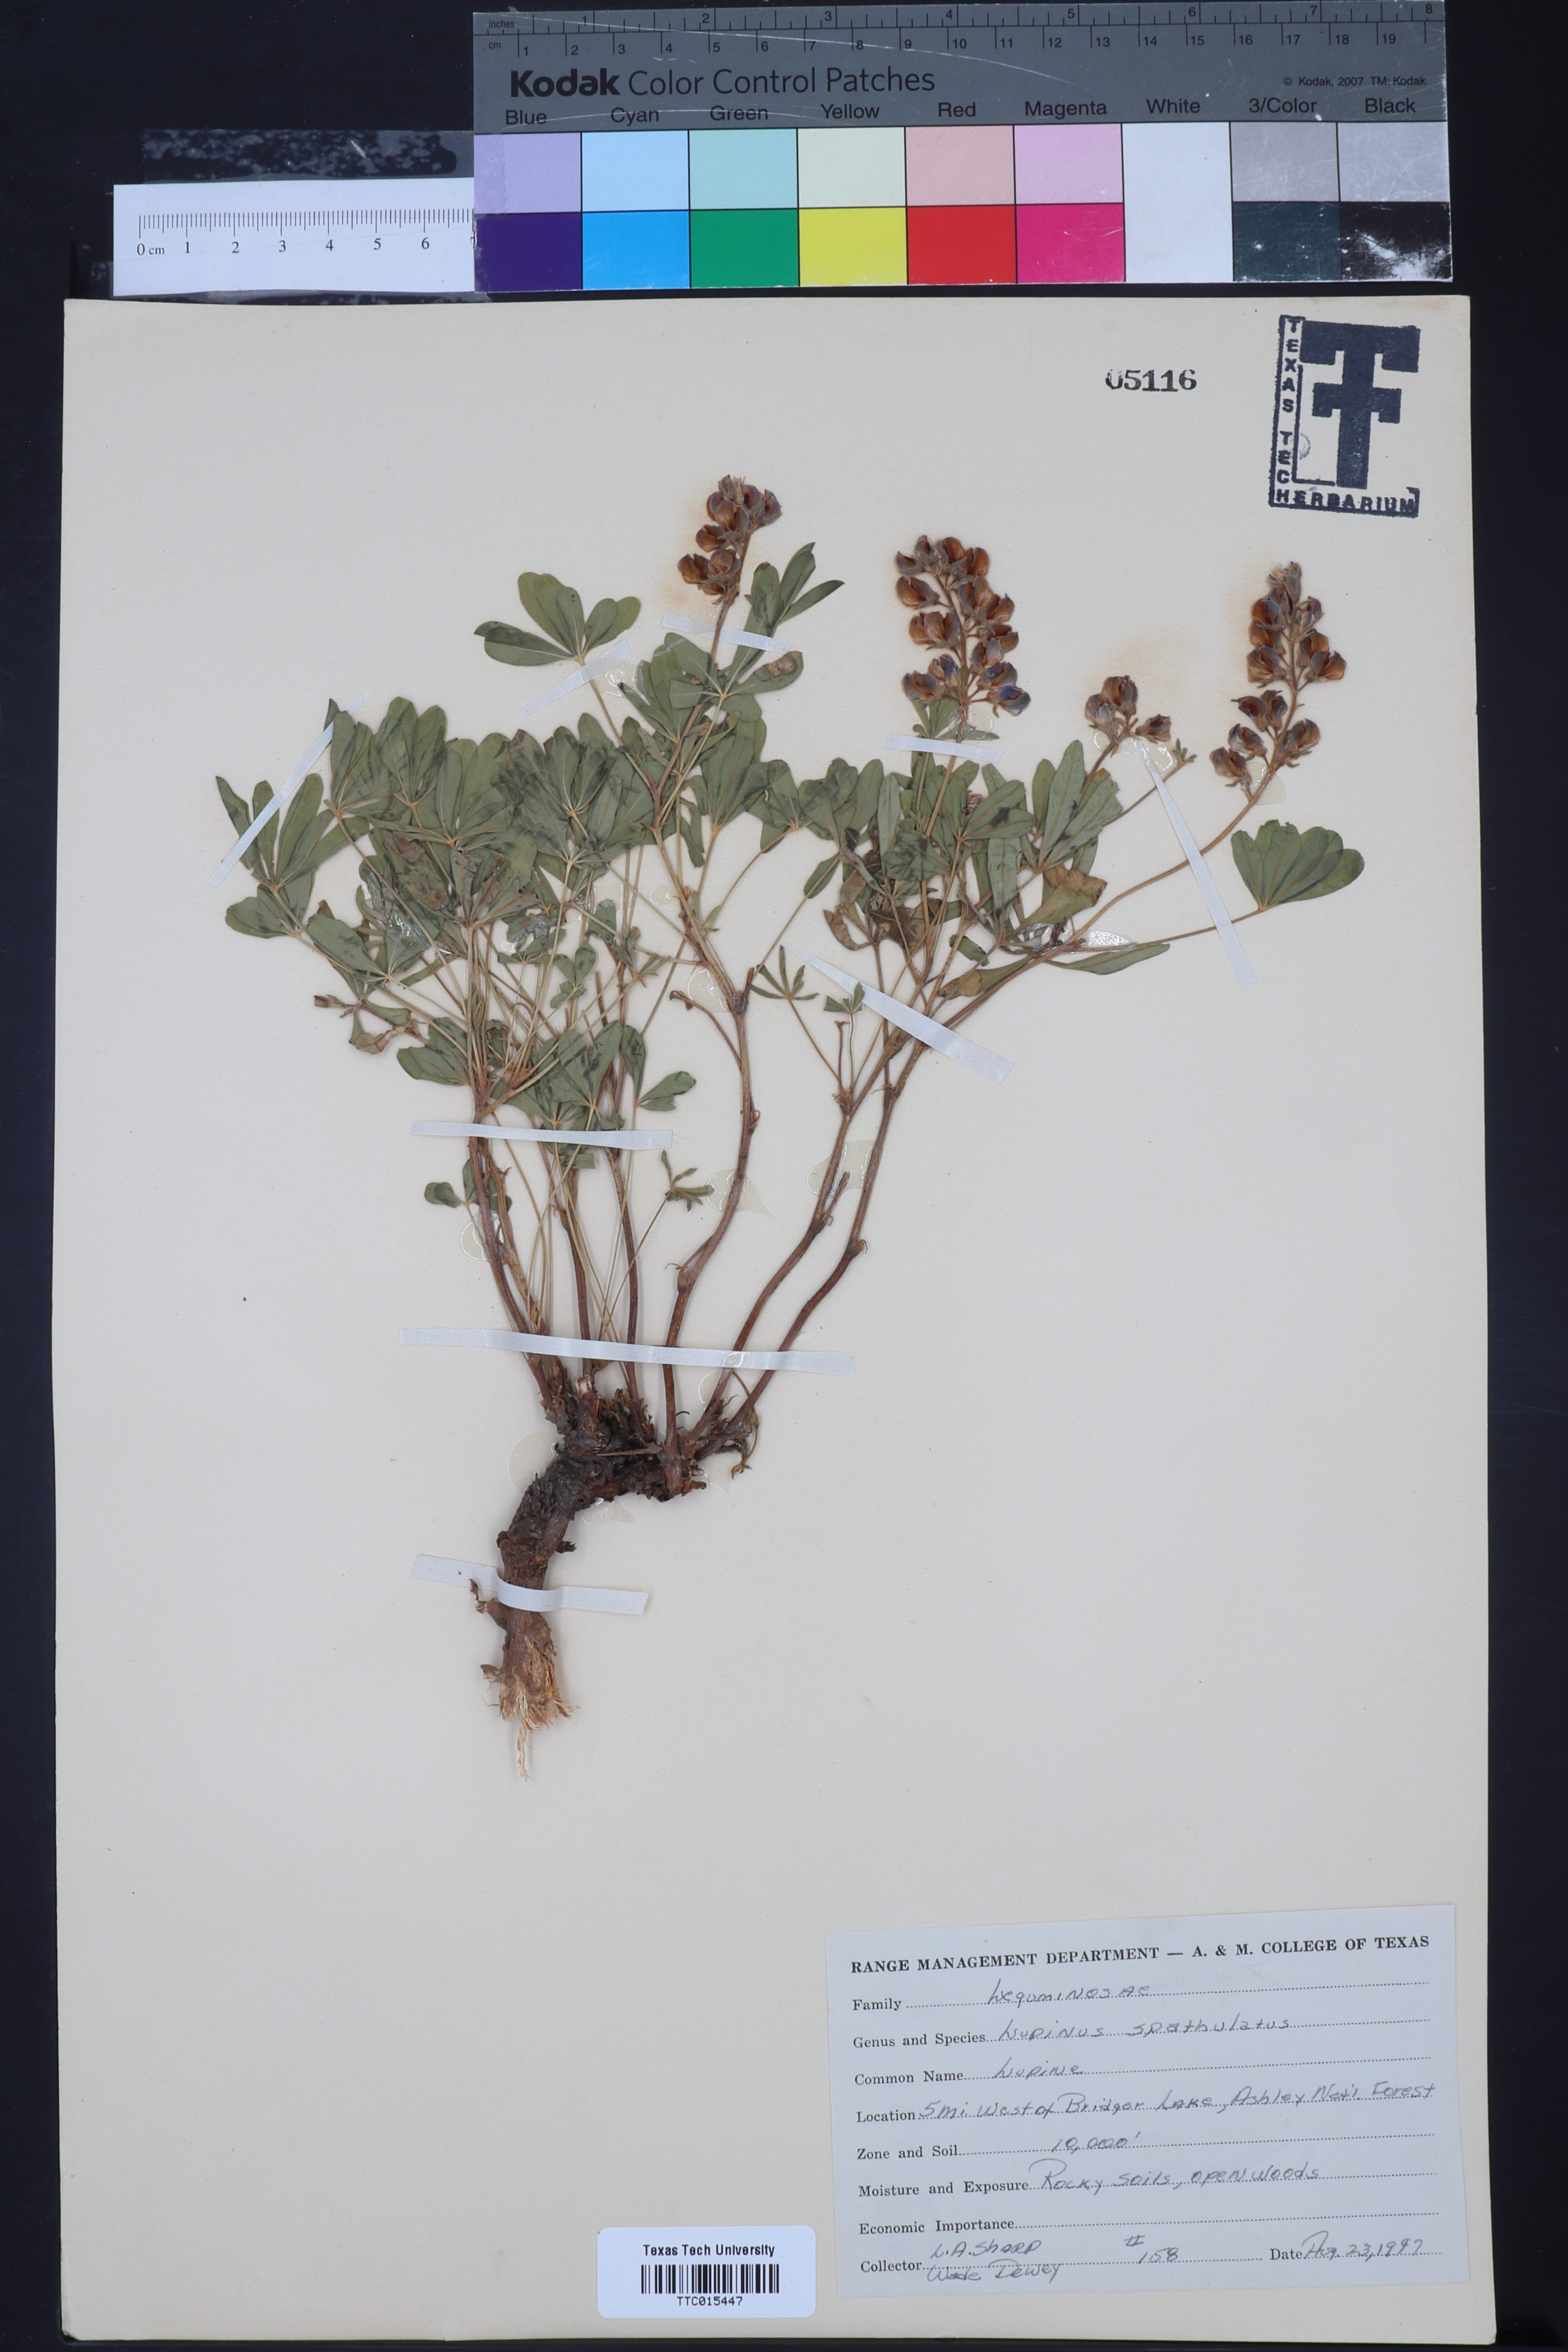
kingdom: Plantae
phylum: Tracheophyta
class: Magnoliopsida
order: Fabales
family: Fabaceae
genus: Lupinus
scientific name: Lupinus argenteus
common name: Silvery lupine
